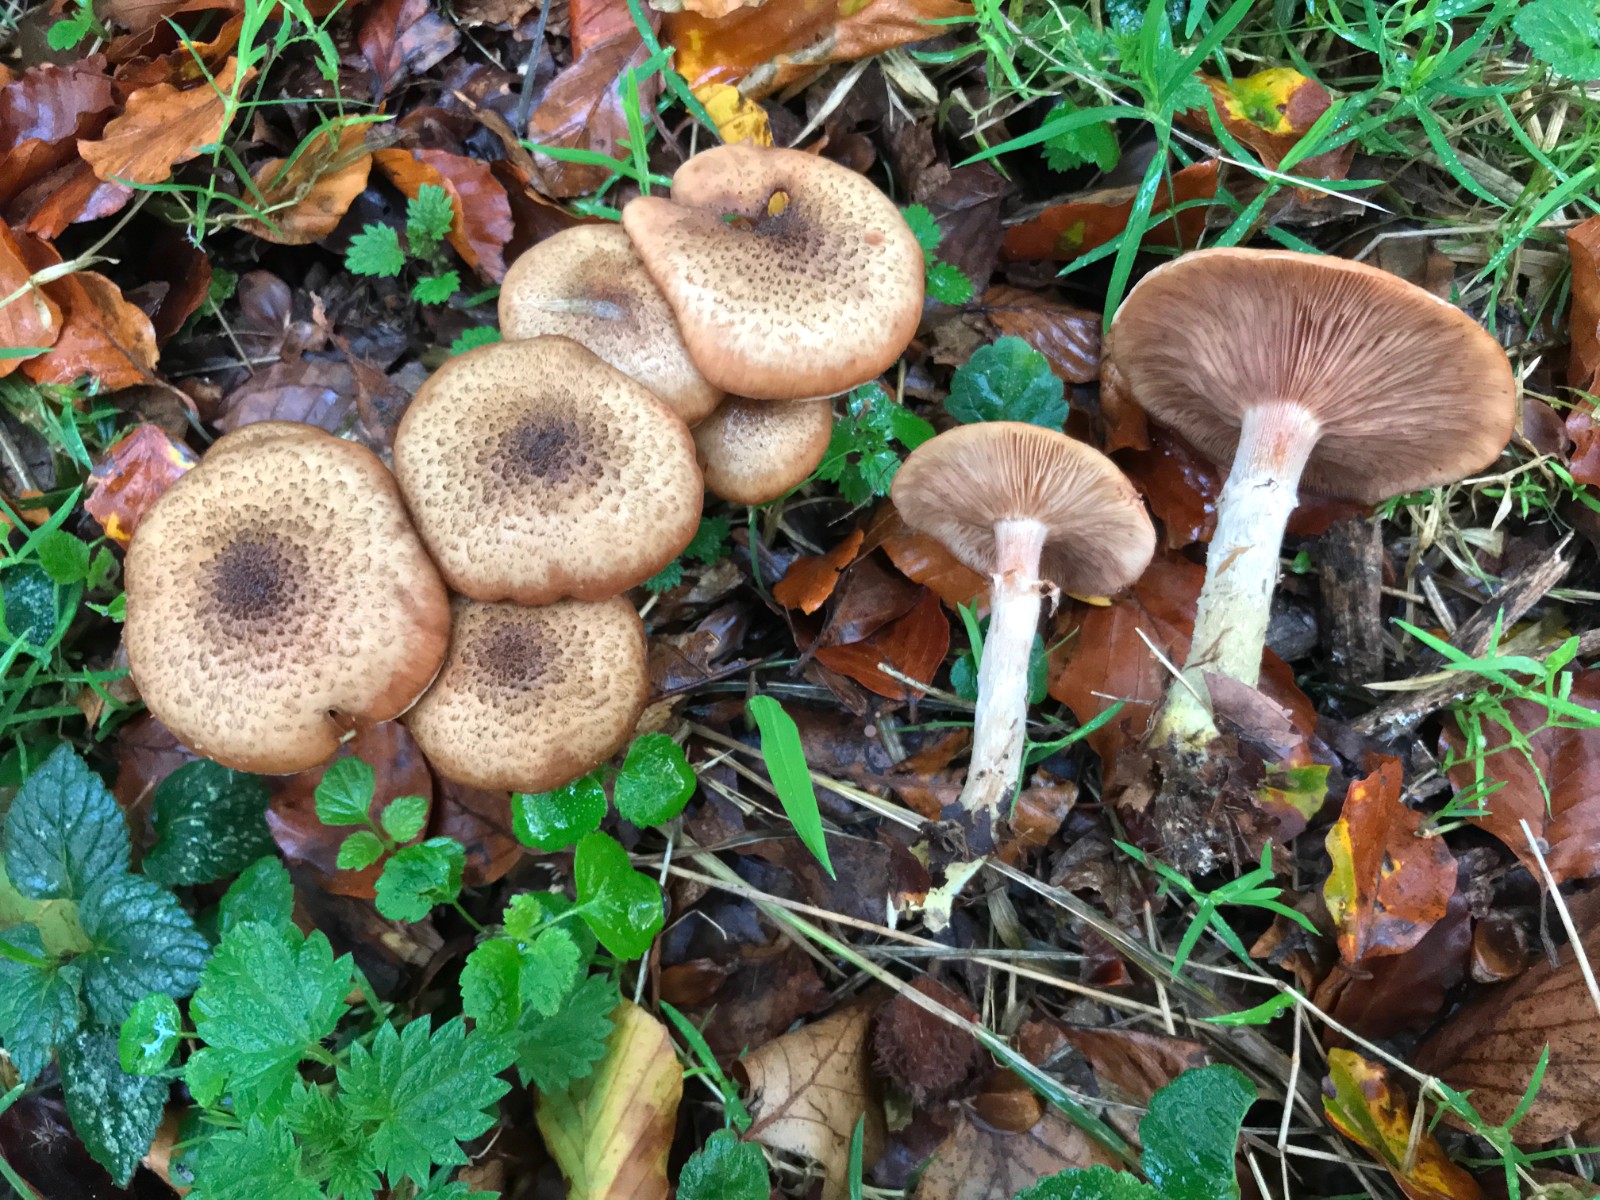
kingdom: Fungi
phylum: Basidiomycota
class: Agaricomycetes
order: Agaricales
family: Physalacriaceae
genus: Armillaria
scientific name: Armillaria lutea
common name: køllestokket honningsvamp
